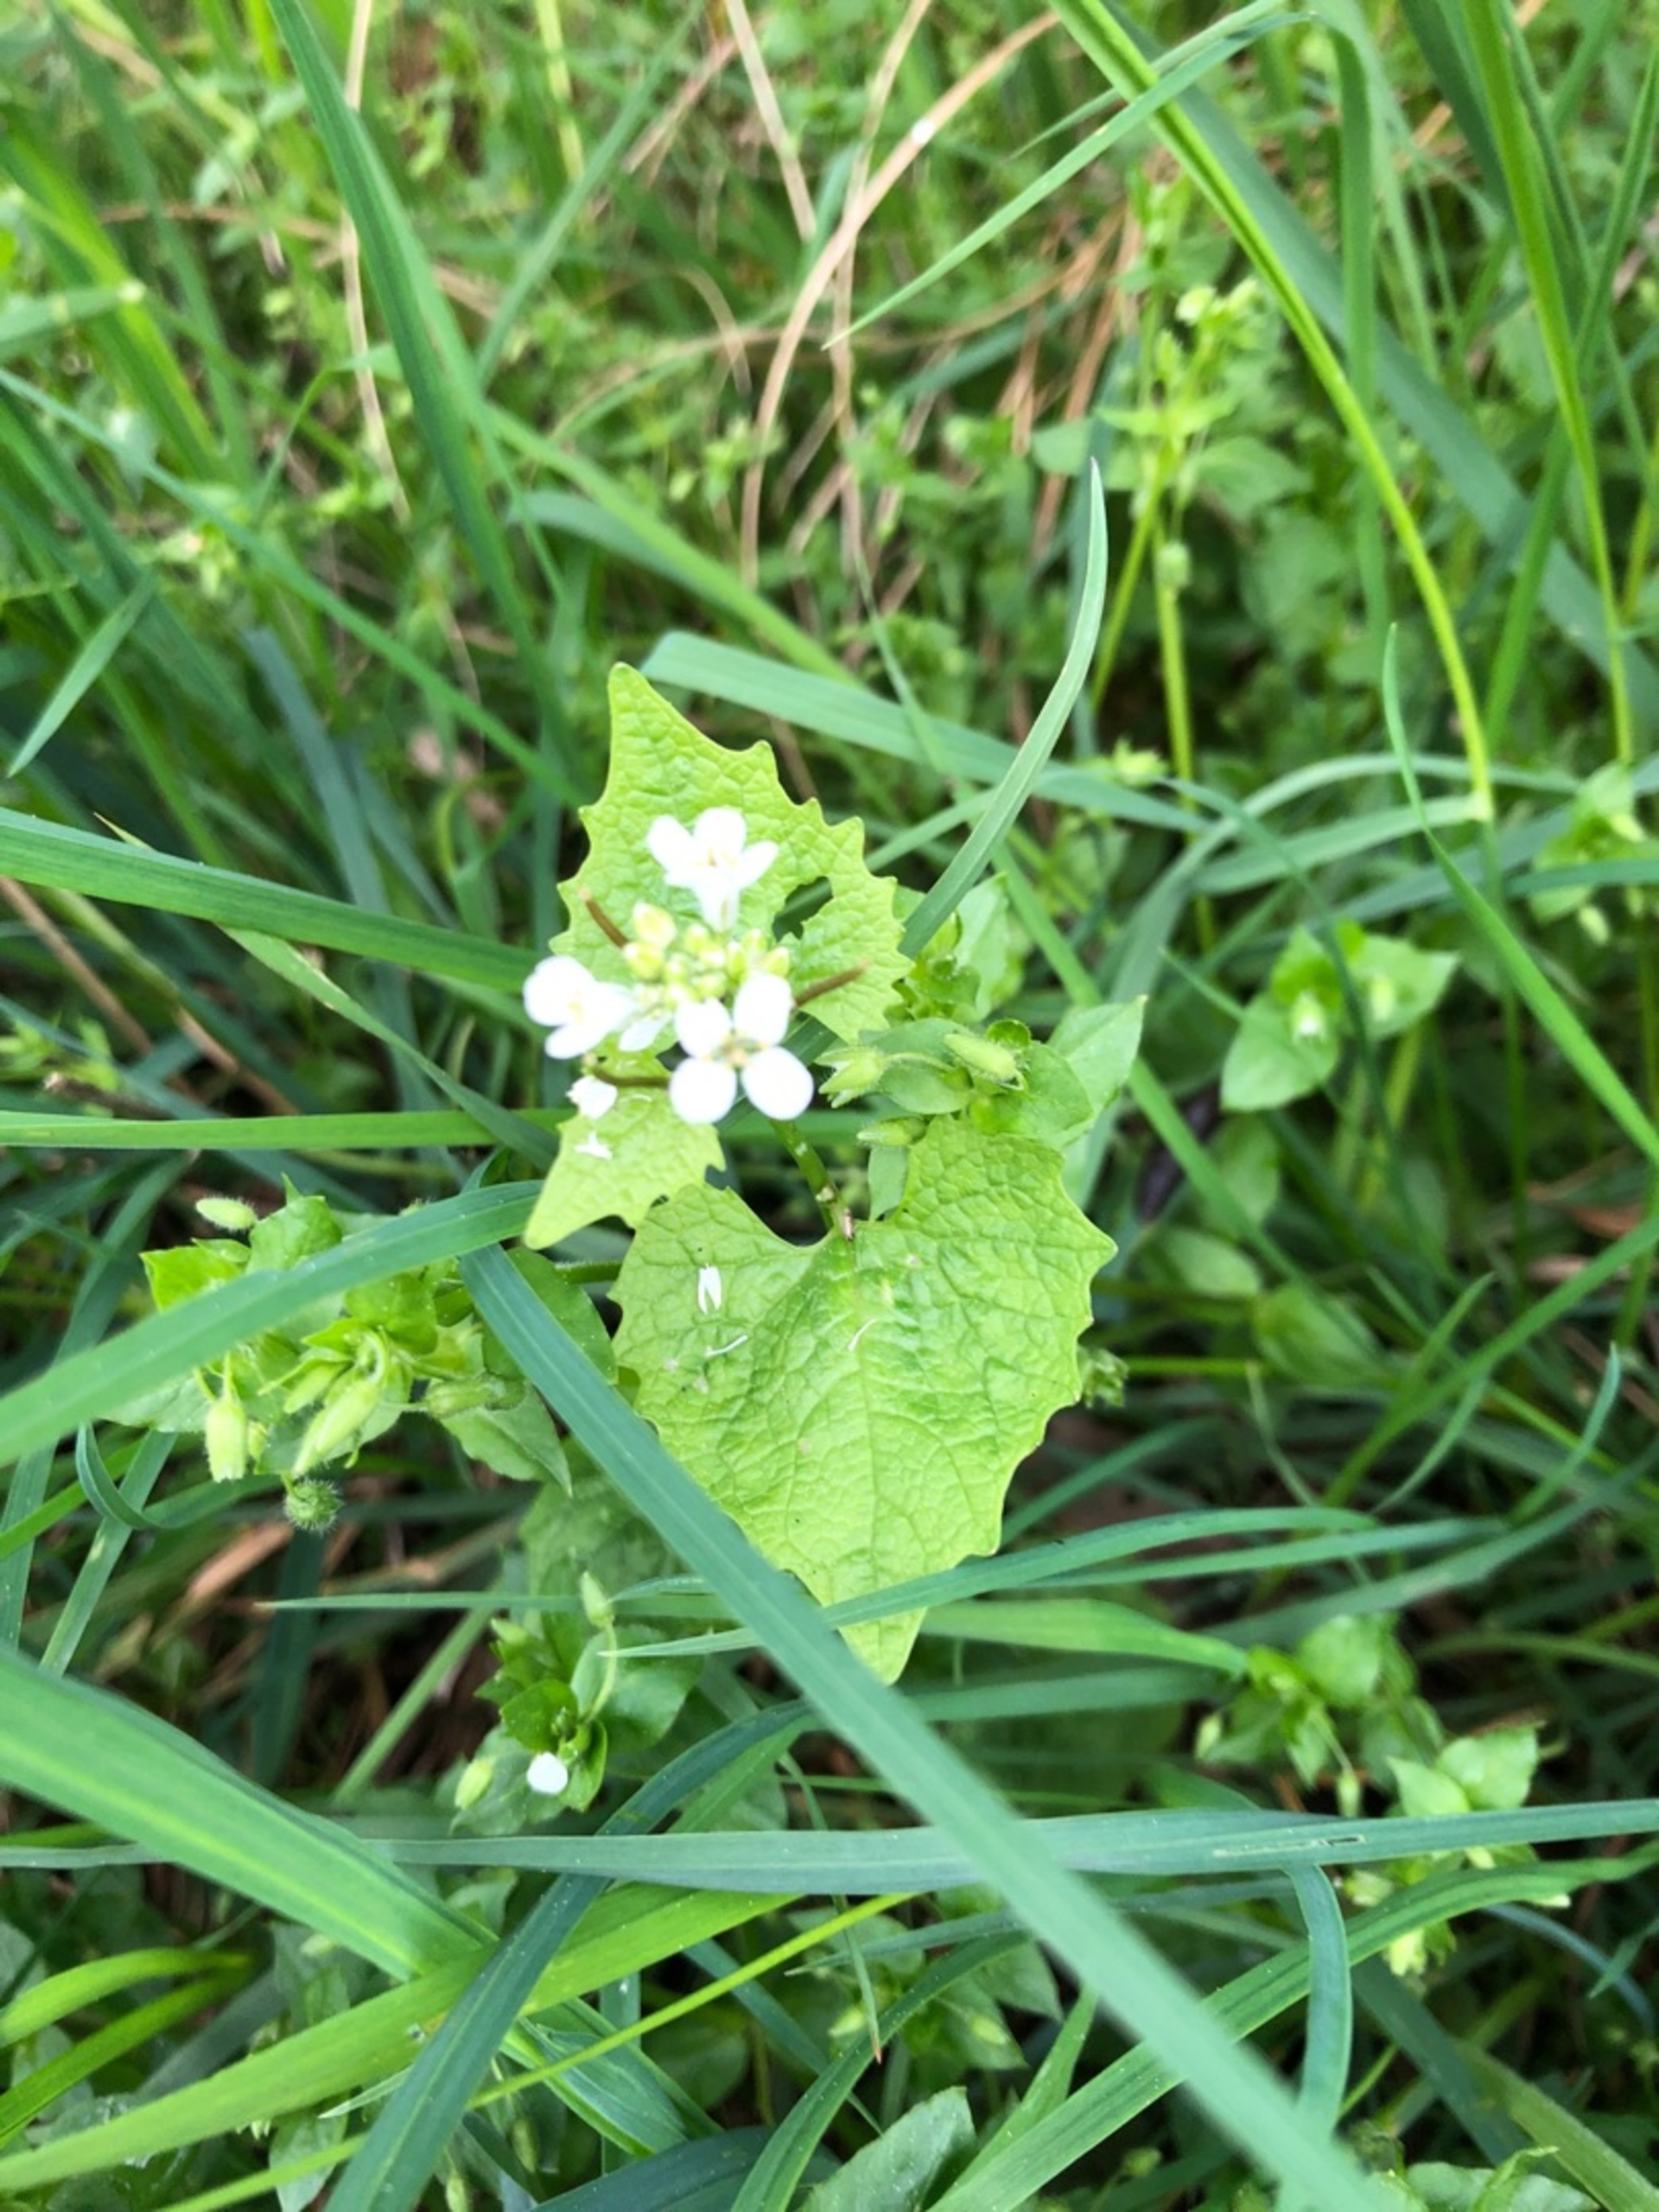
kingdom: Plantae
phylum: Tracheophyta
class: Magnoliopsida
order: Brassicales
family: Brassicaceae
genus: Alliaria
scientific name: Alliaria petiolata
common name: Løgkarse
